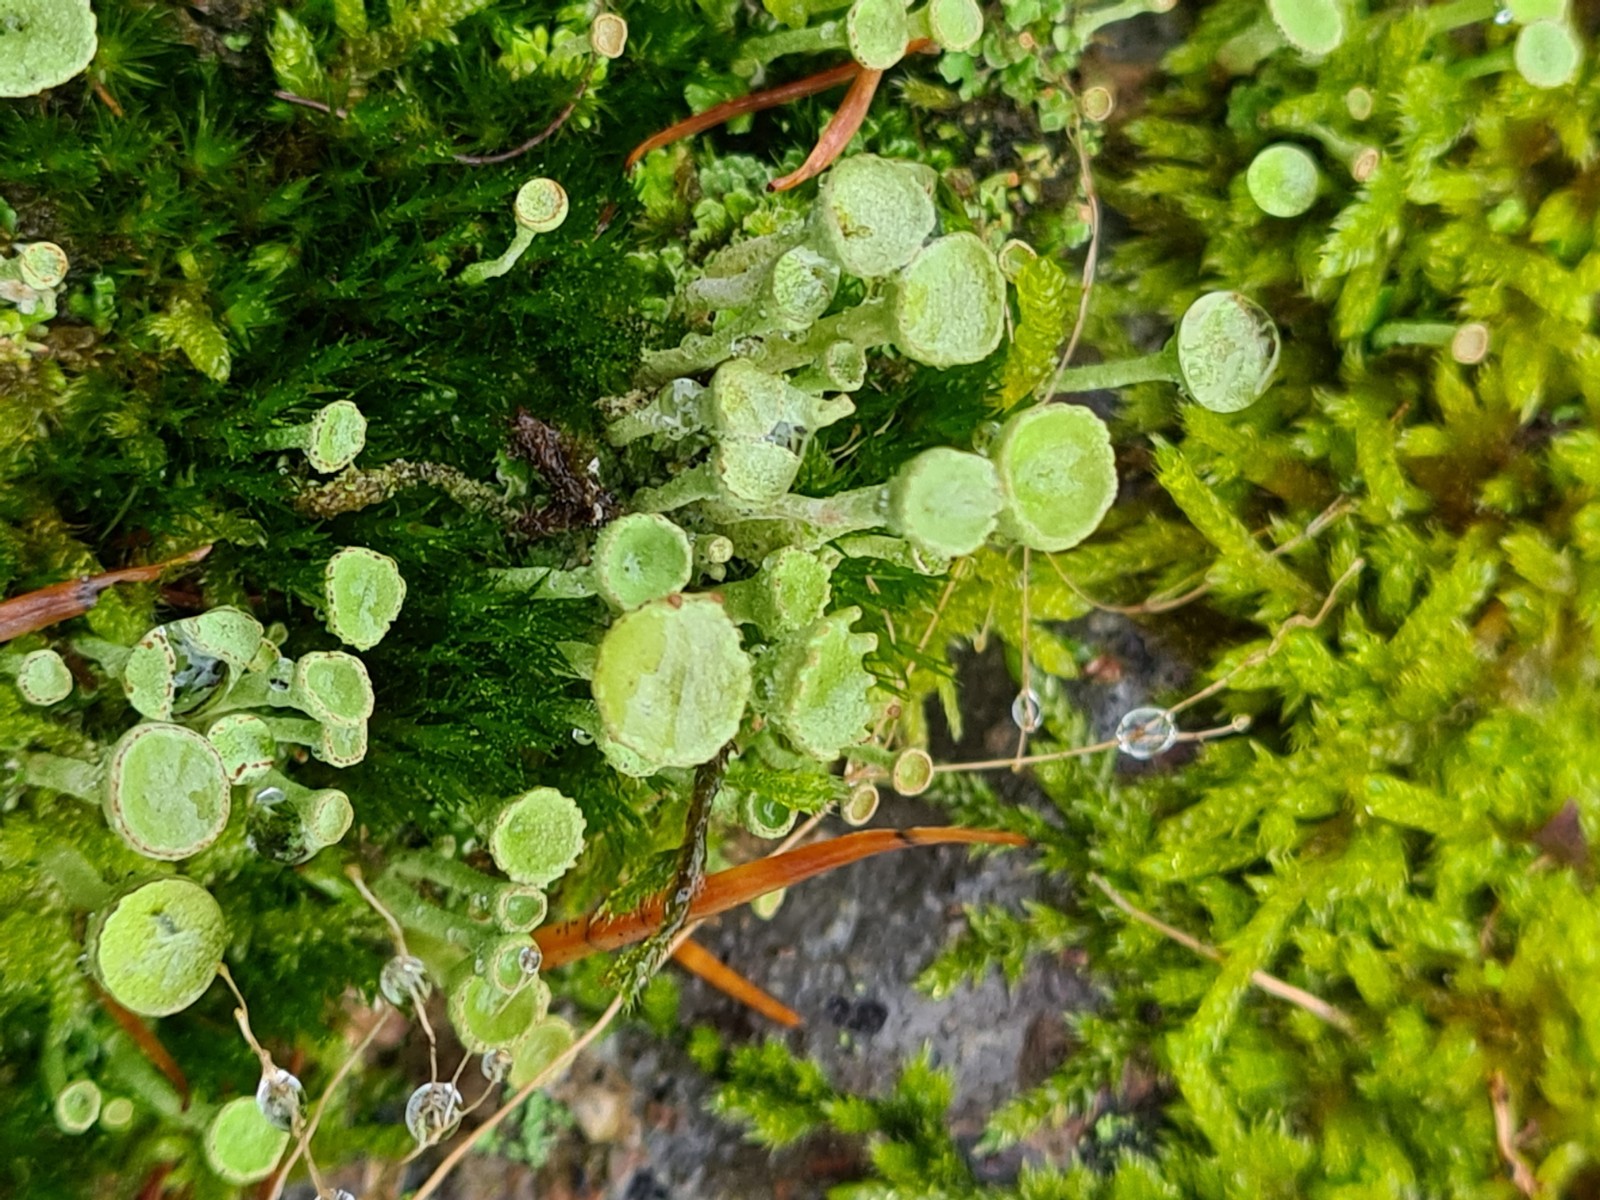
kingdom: Fungi
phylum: Ascomycota
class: Lecanoromycetes
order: Lecanorales
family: Cladoniaceae
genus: Cladonia
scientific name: Cladonia
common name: brungrøn bægerlav
